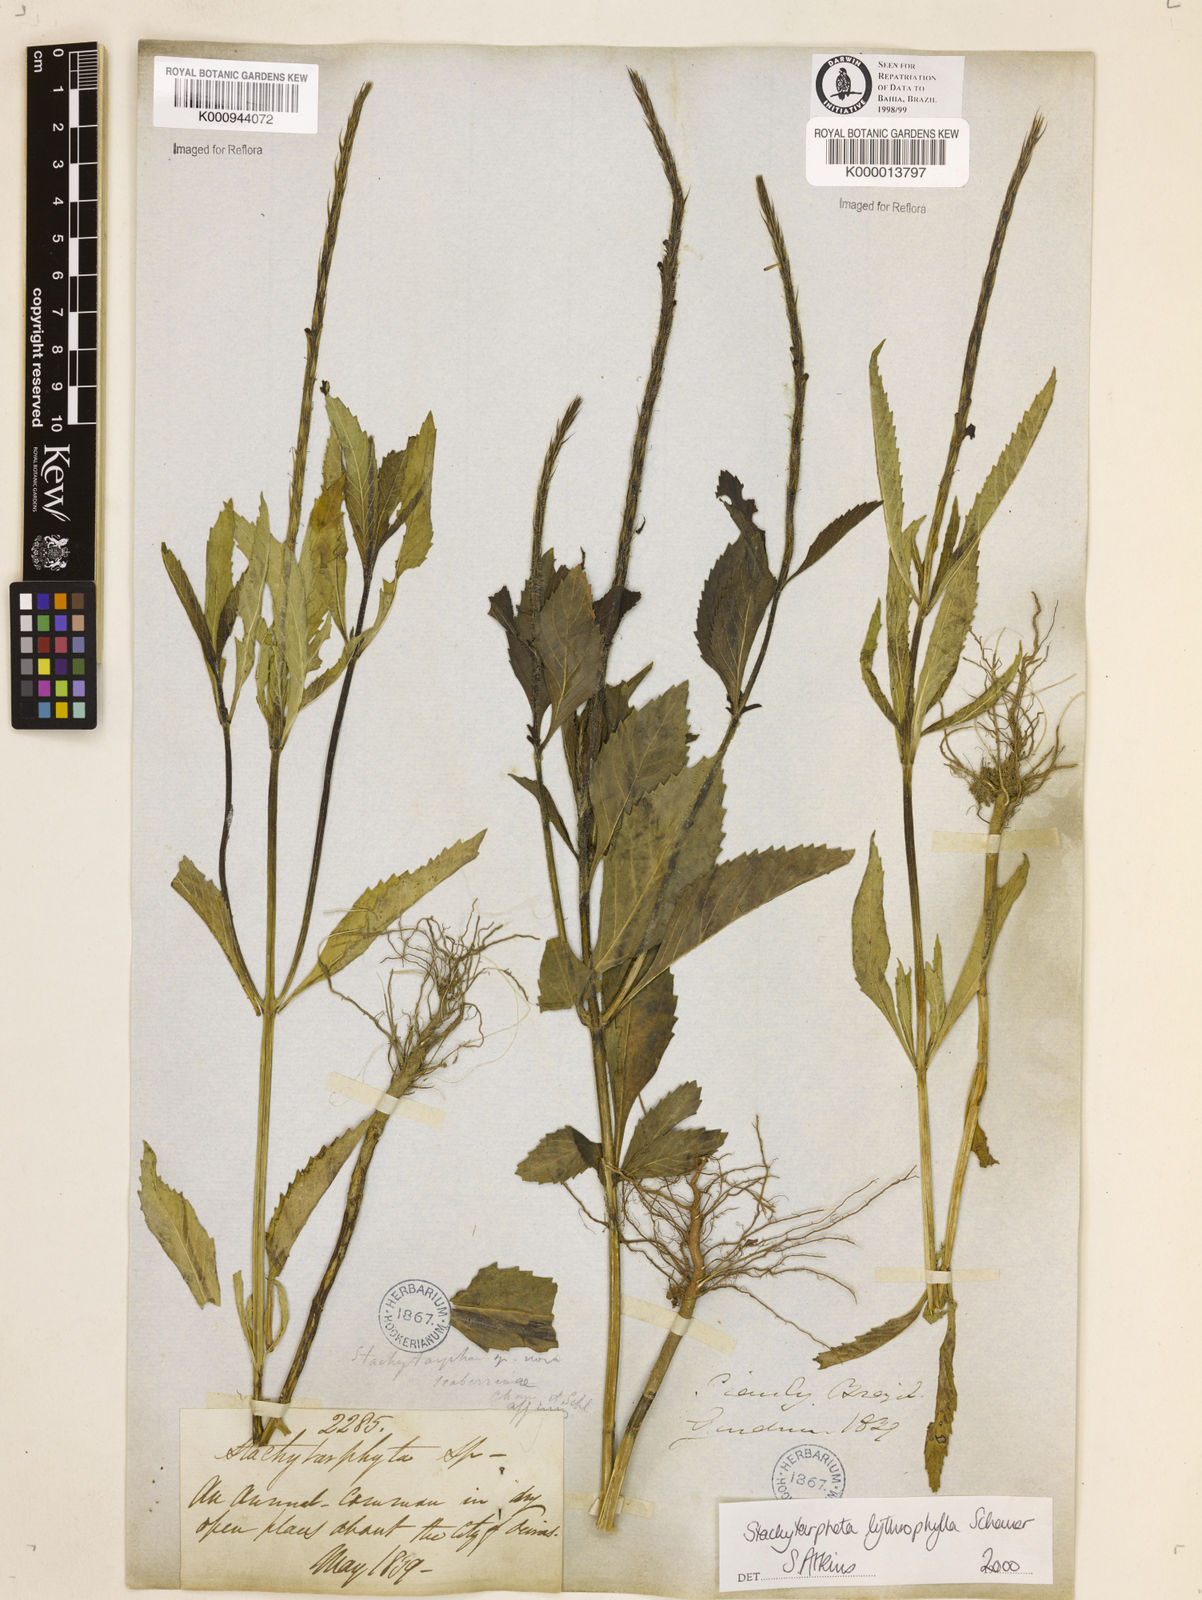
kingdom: Plantae
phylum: Tracheophyta
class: Magnoliopsida
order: Lamiales
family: Verbenaceae
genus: Stachytarpheta
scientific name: Stachytarpheta lythrophylla
